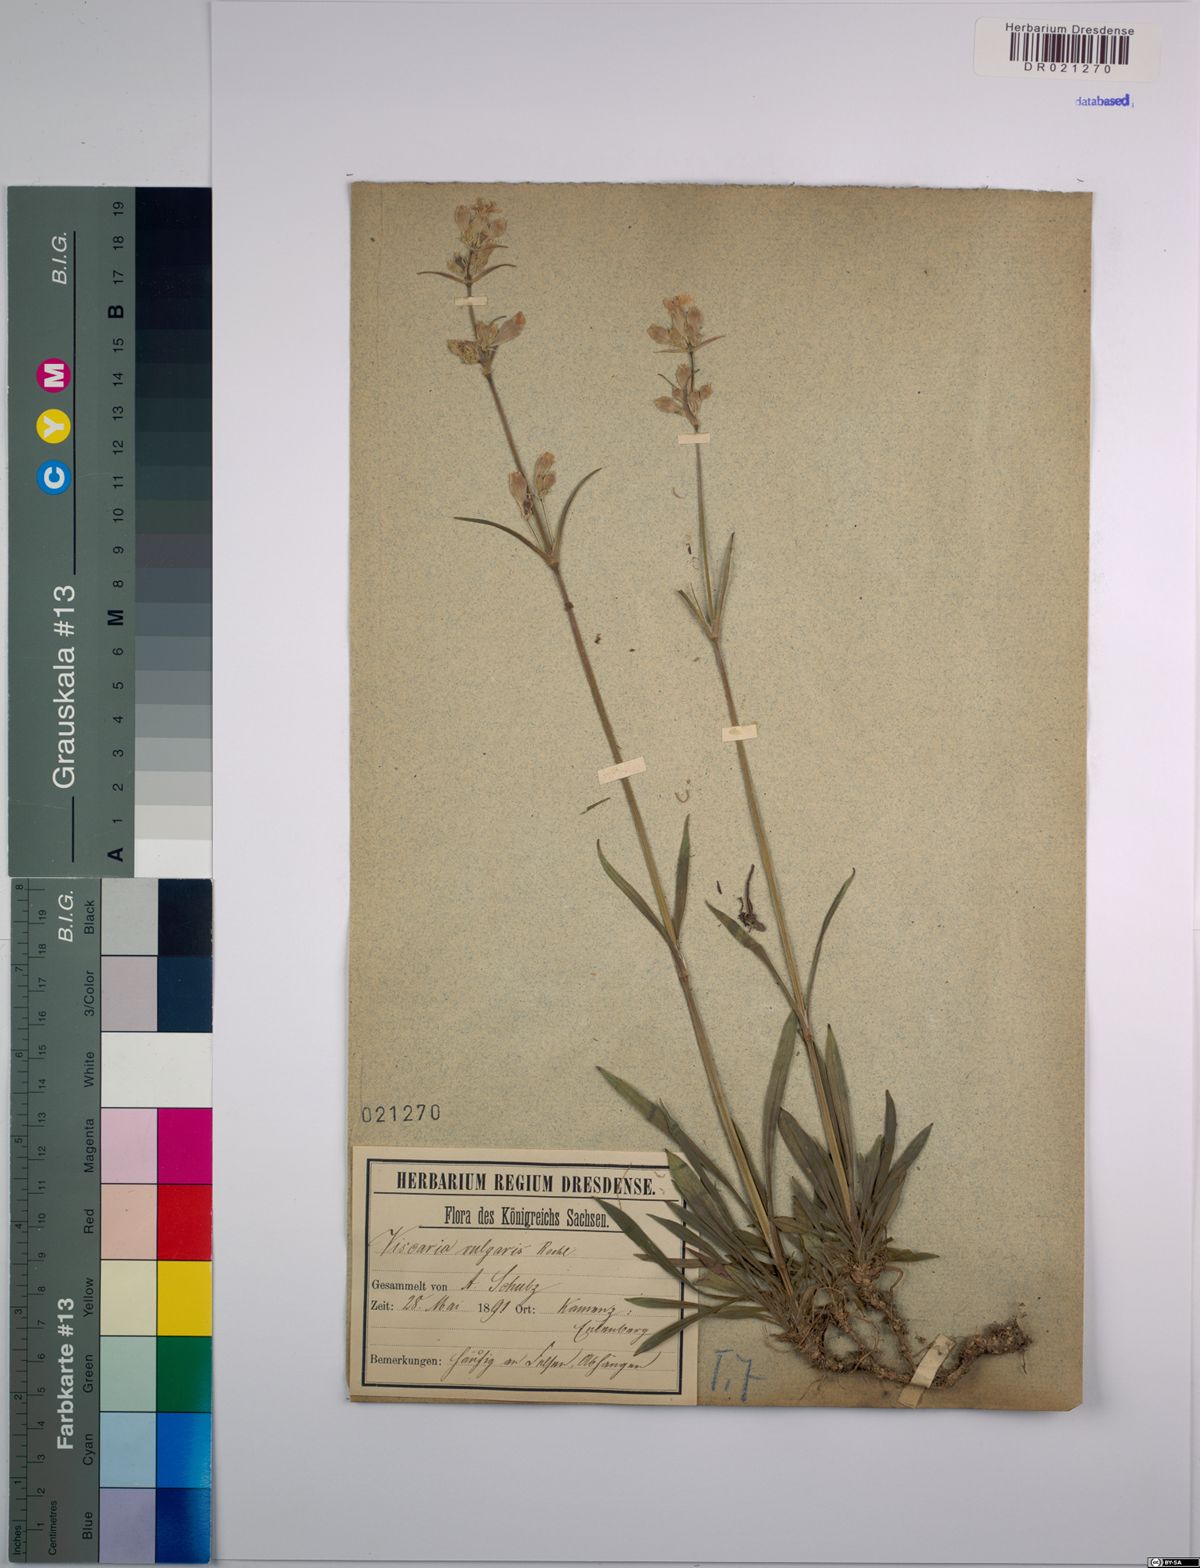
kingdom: Plantae
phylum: Tracheophyta
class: Magnoliopsida
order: Caryophyllales
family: Caryophyllaceae
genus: Viscaria
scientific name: Viscaria vulgaris
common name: Clammy campion
